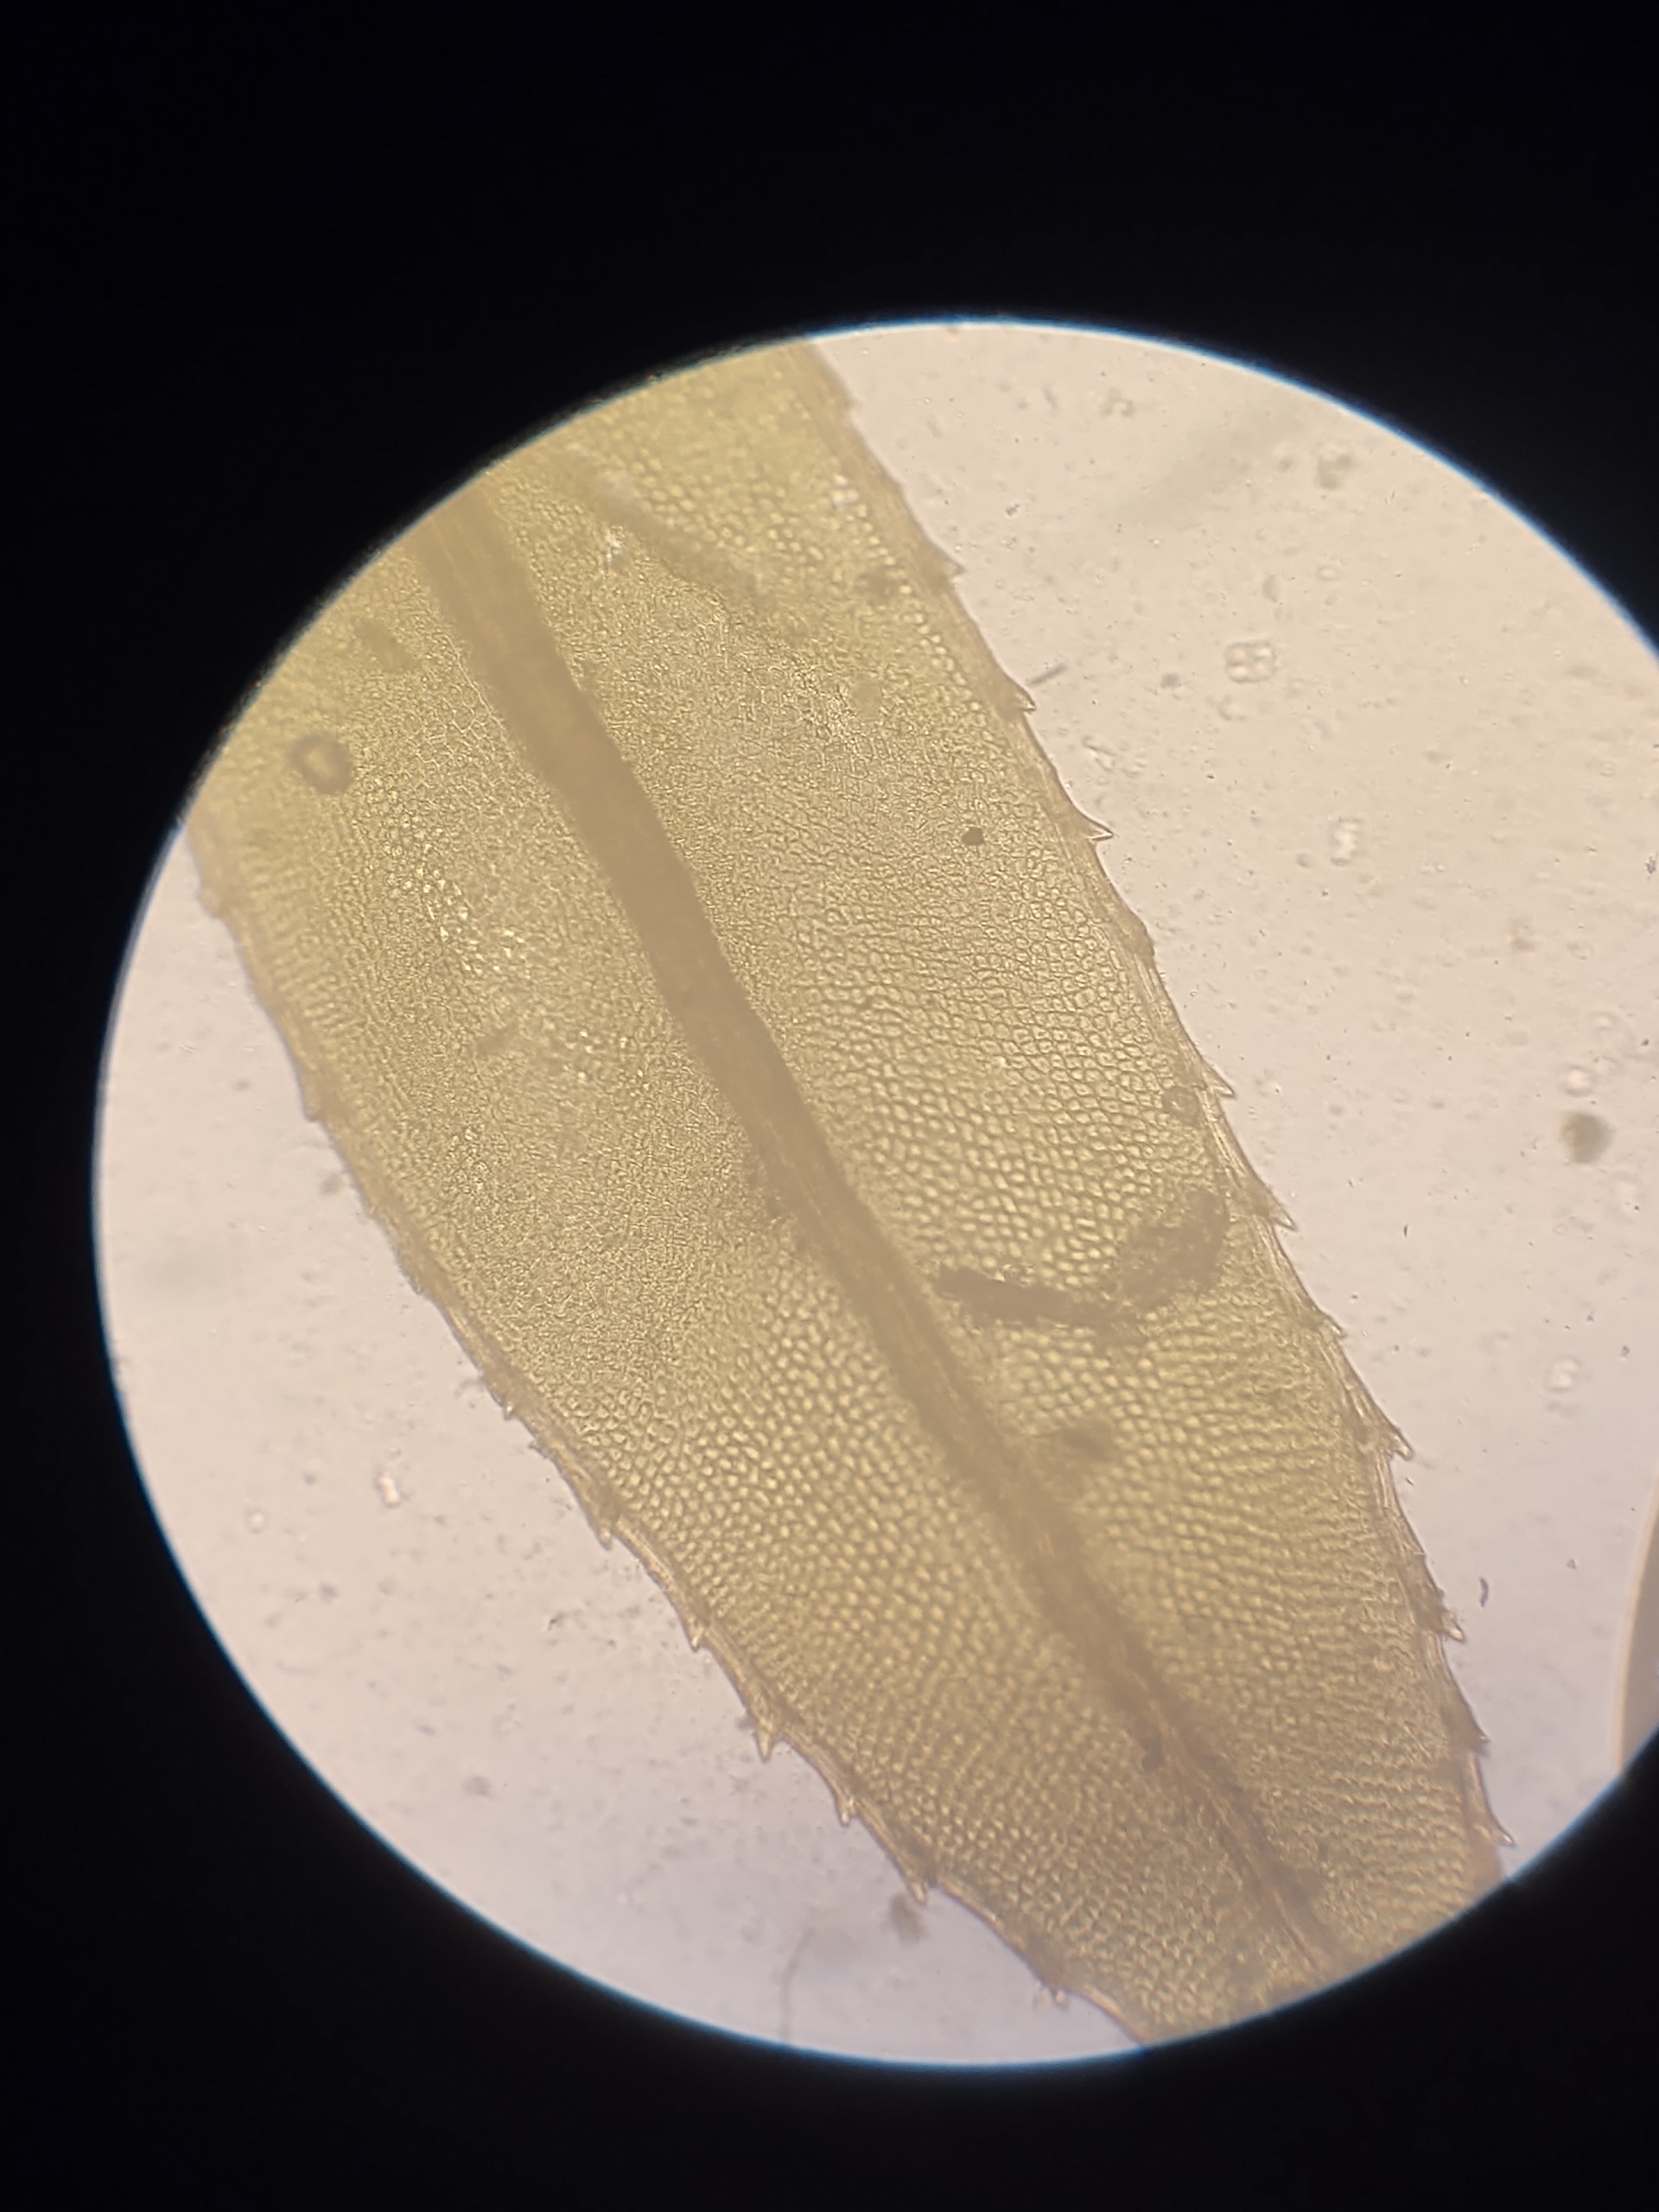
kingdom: Plantae
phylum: Bryophyta
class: Bryopsida
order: Bryales
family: Mniaceae
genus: Mnium
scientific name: Mnium hornum
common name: Brunfiltet stjernemos
